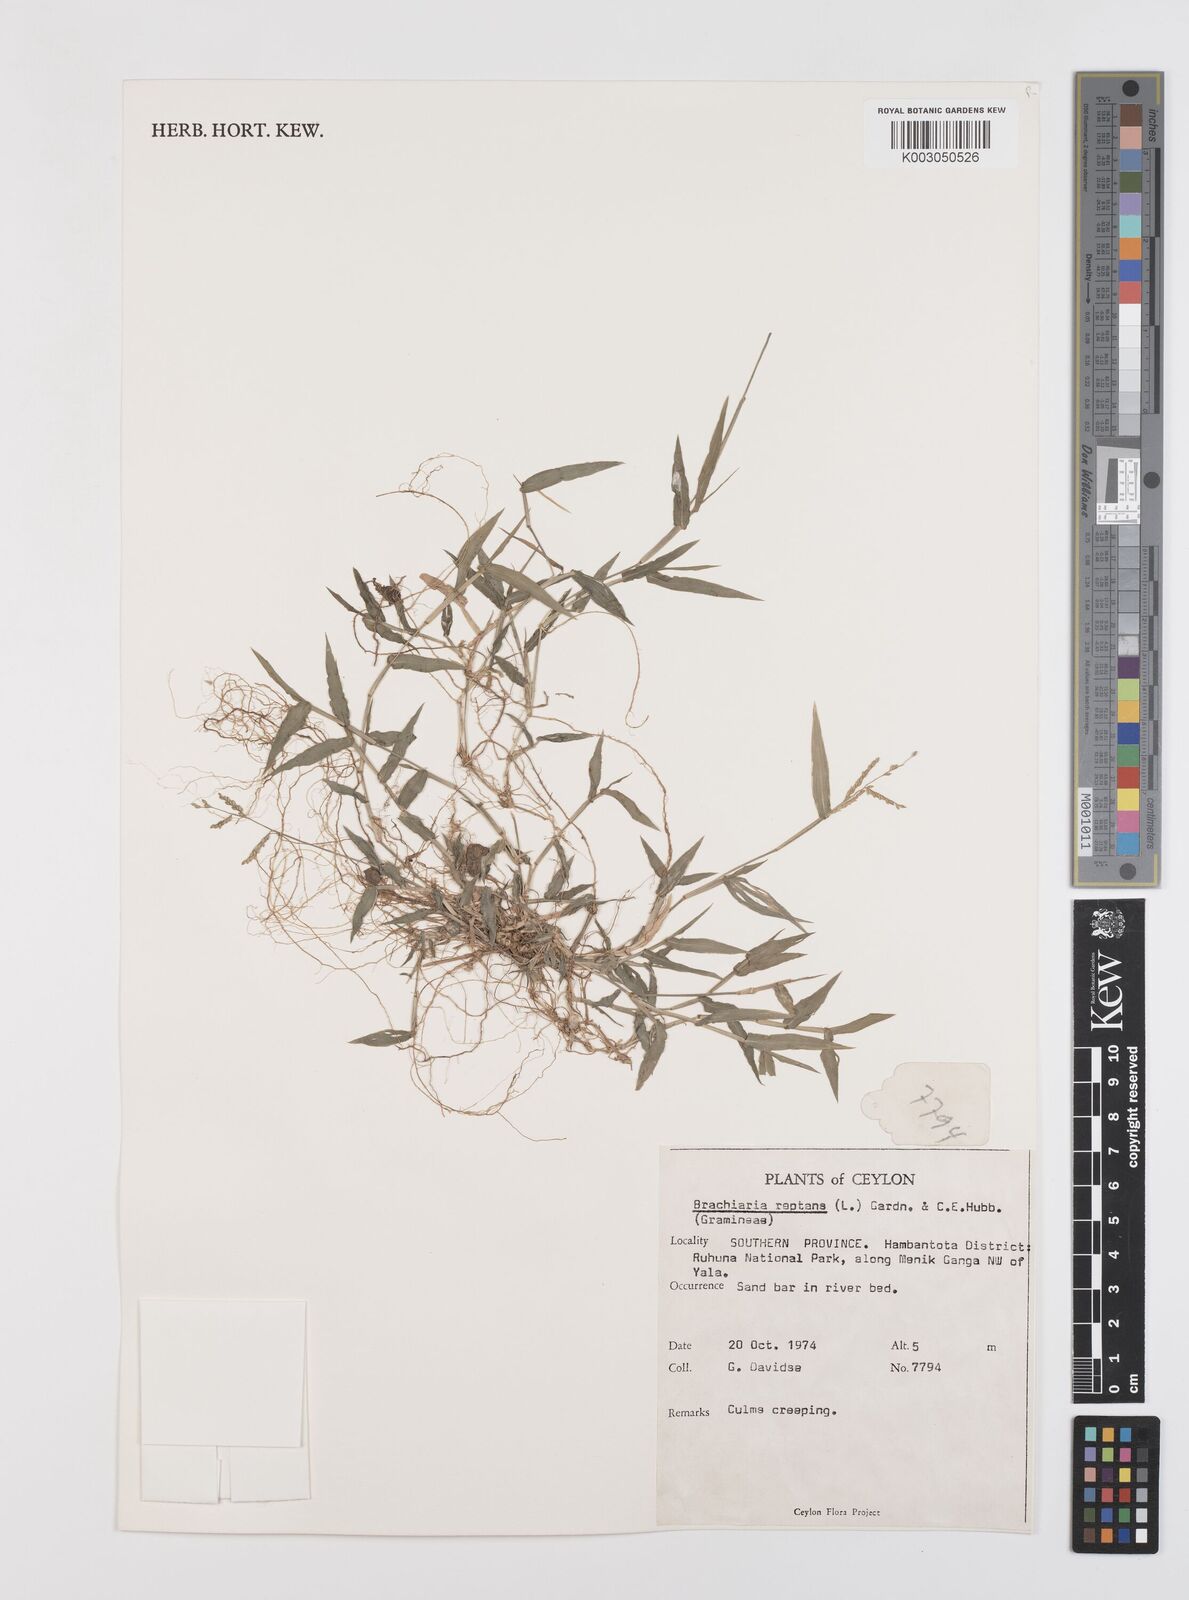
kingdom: Plantae
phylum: Tracheophyta
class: Liliopsida
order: Poales
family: Poaceae
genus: Urochloa
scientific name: Urochloa reptans
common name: Sprawling signalgrass
